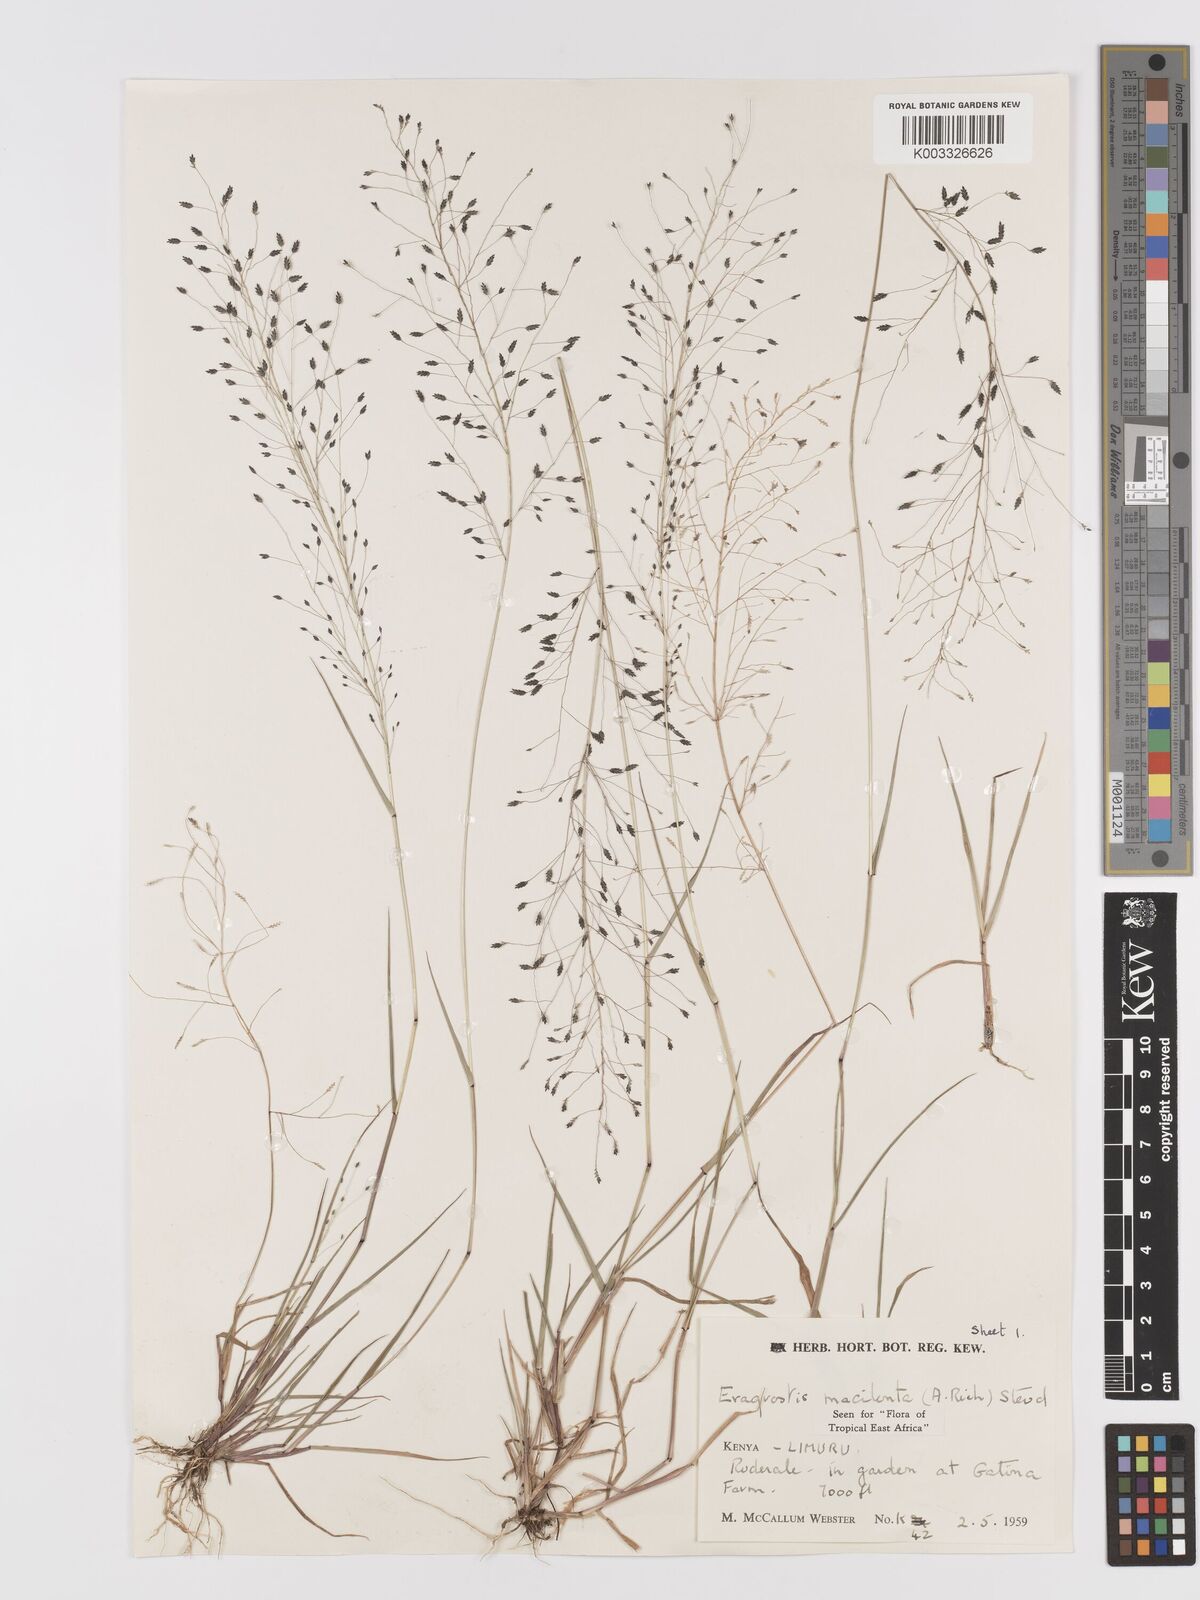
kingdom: Plantae
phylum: Tracheophyta
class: Liliopsida
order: Poales
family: Poaceae
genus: Eragrostis
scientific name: Eragrostis macilenta
